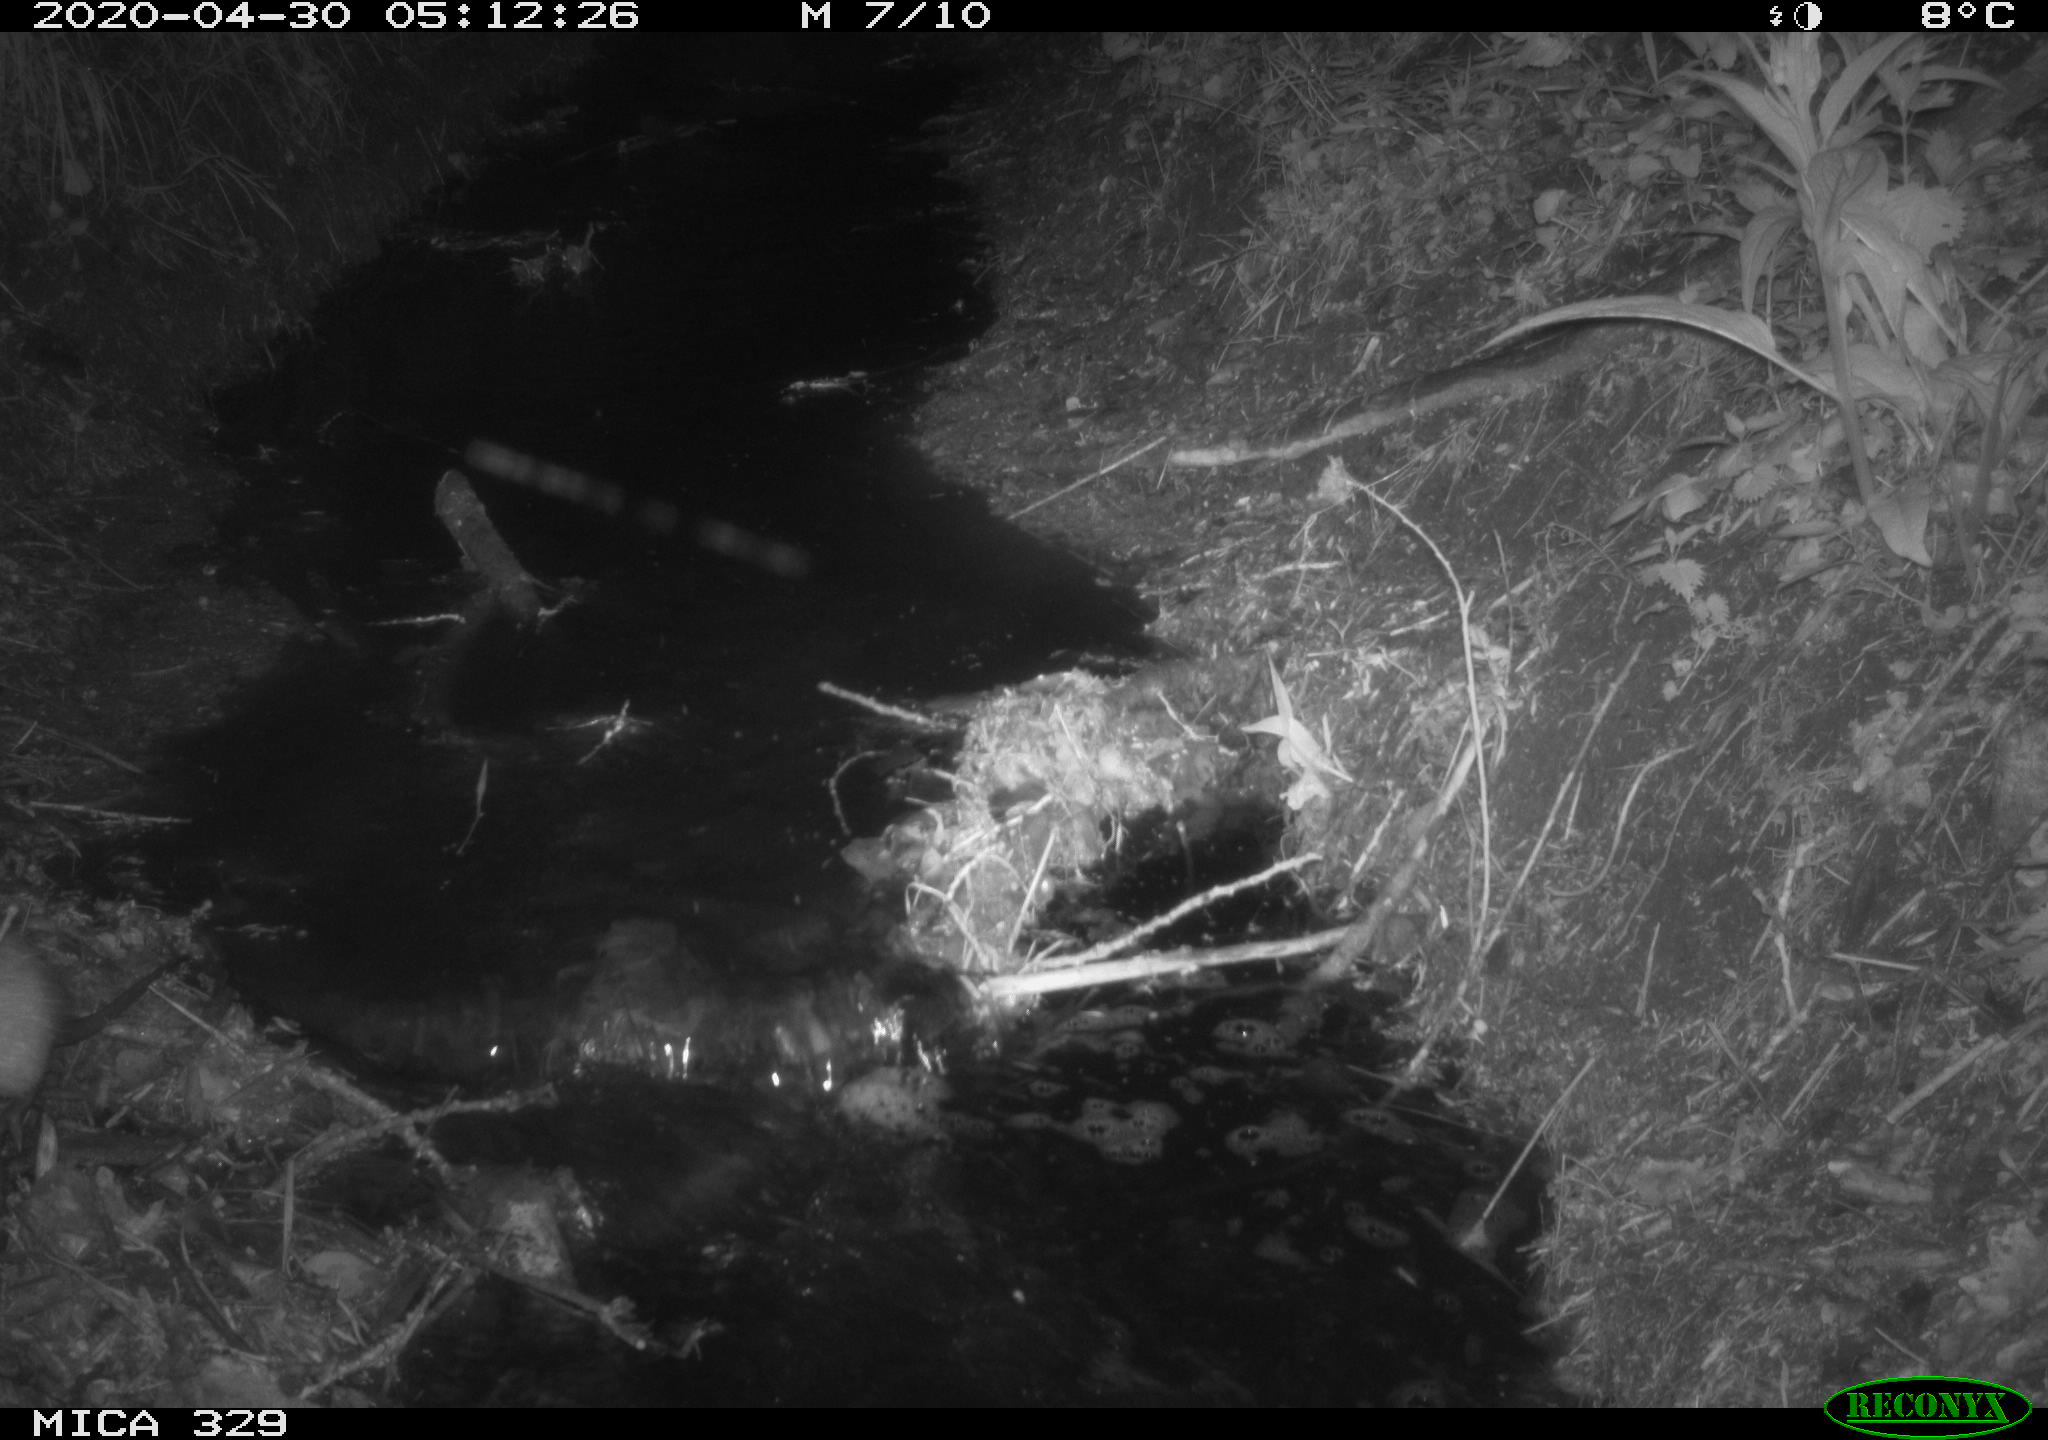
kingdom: Animalia
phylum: Chordata
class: Mammalia
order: Rodentia
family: Cricetidae
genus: Ondatra
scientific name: Ondatra zibethicus
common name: Muskrat
